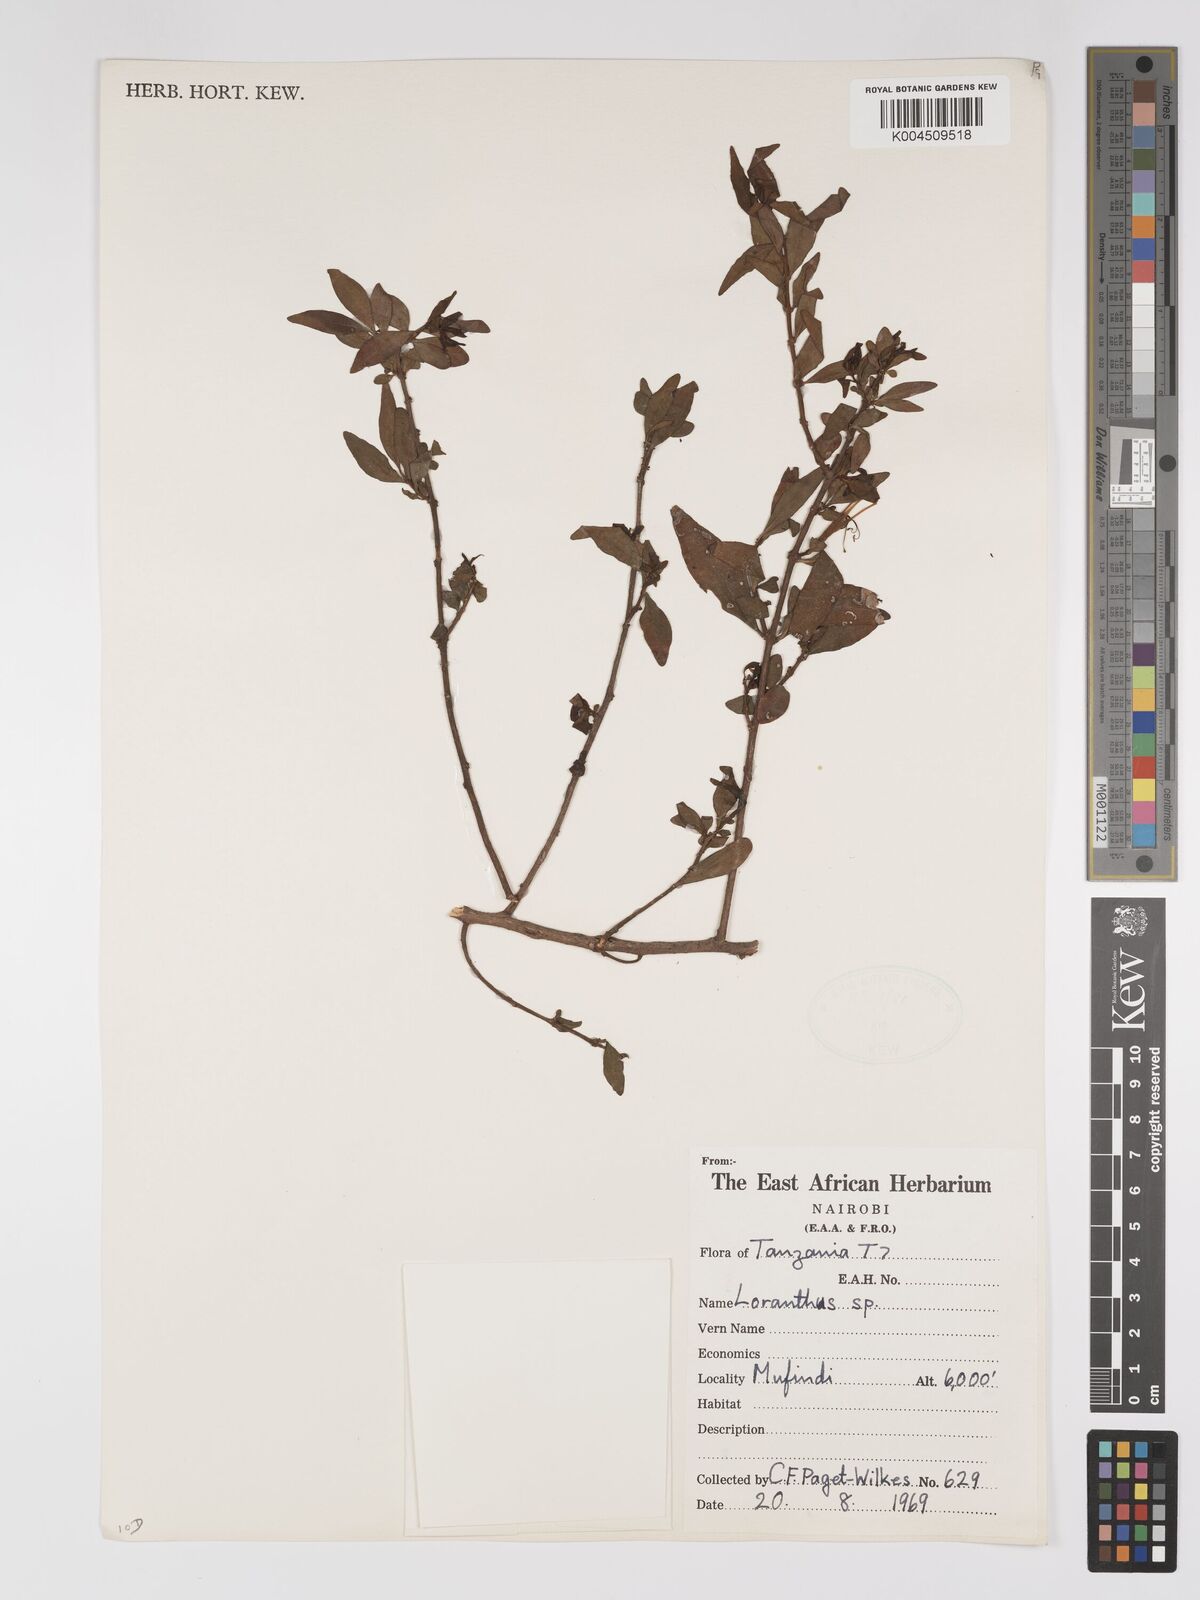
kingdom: Plantae
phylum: Tracheophyta
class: Magnoliopsida
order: Santalales
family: Loranthaceae
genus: Englerina
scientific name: Englerina inaequilatera
